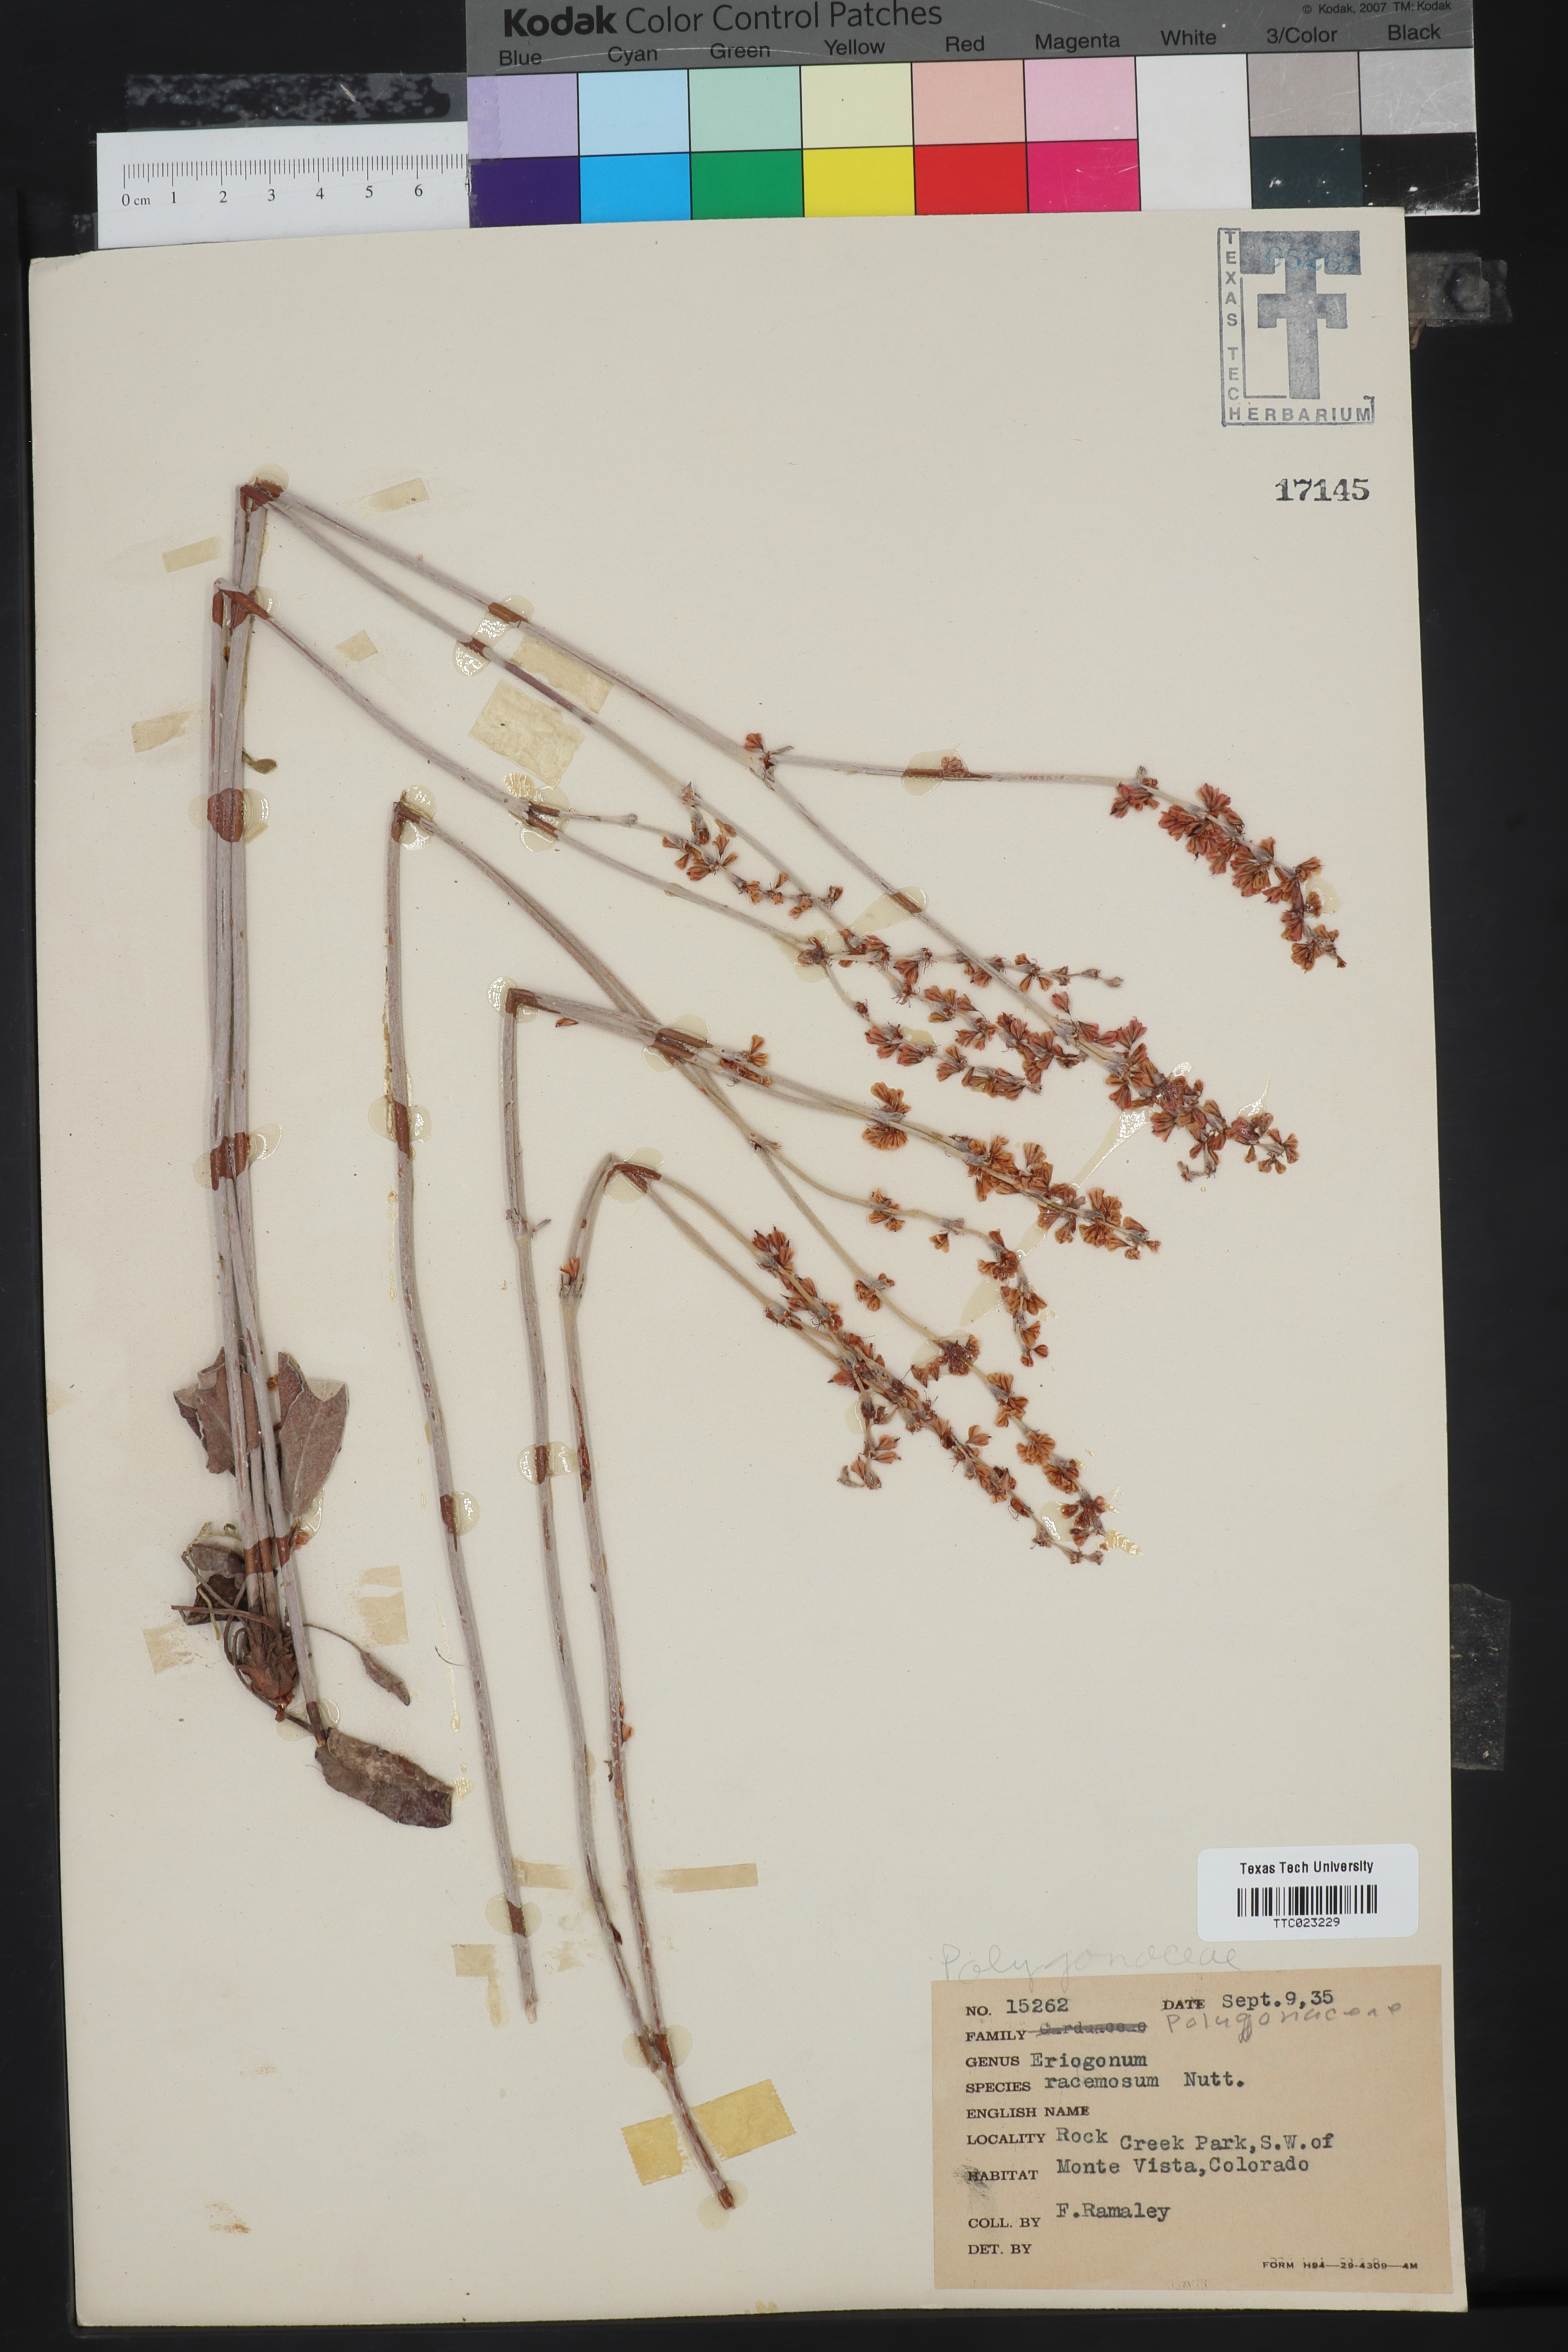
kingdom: Plantae
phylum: Tracheophyta
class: Magnoliopsida
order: Caryophyllales
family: Polygonaceae
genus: Eriogonum
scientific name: Eriogonum racemosum
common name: Redroot wild buckwheat
